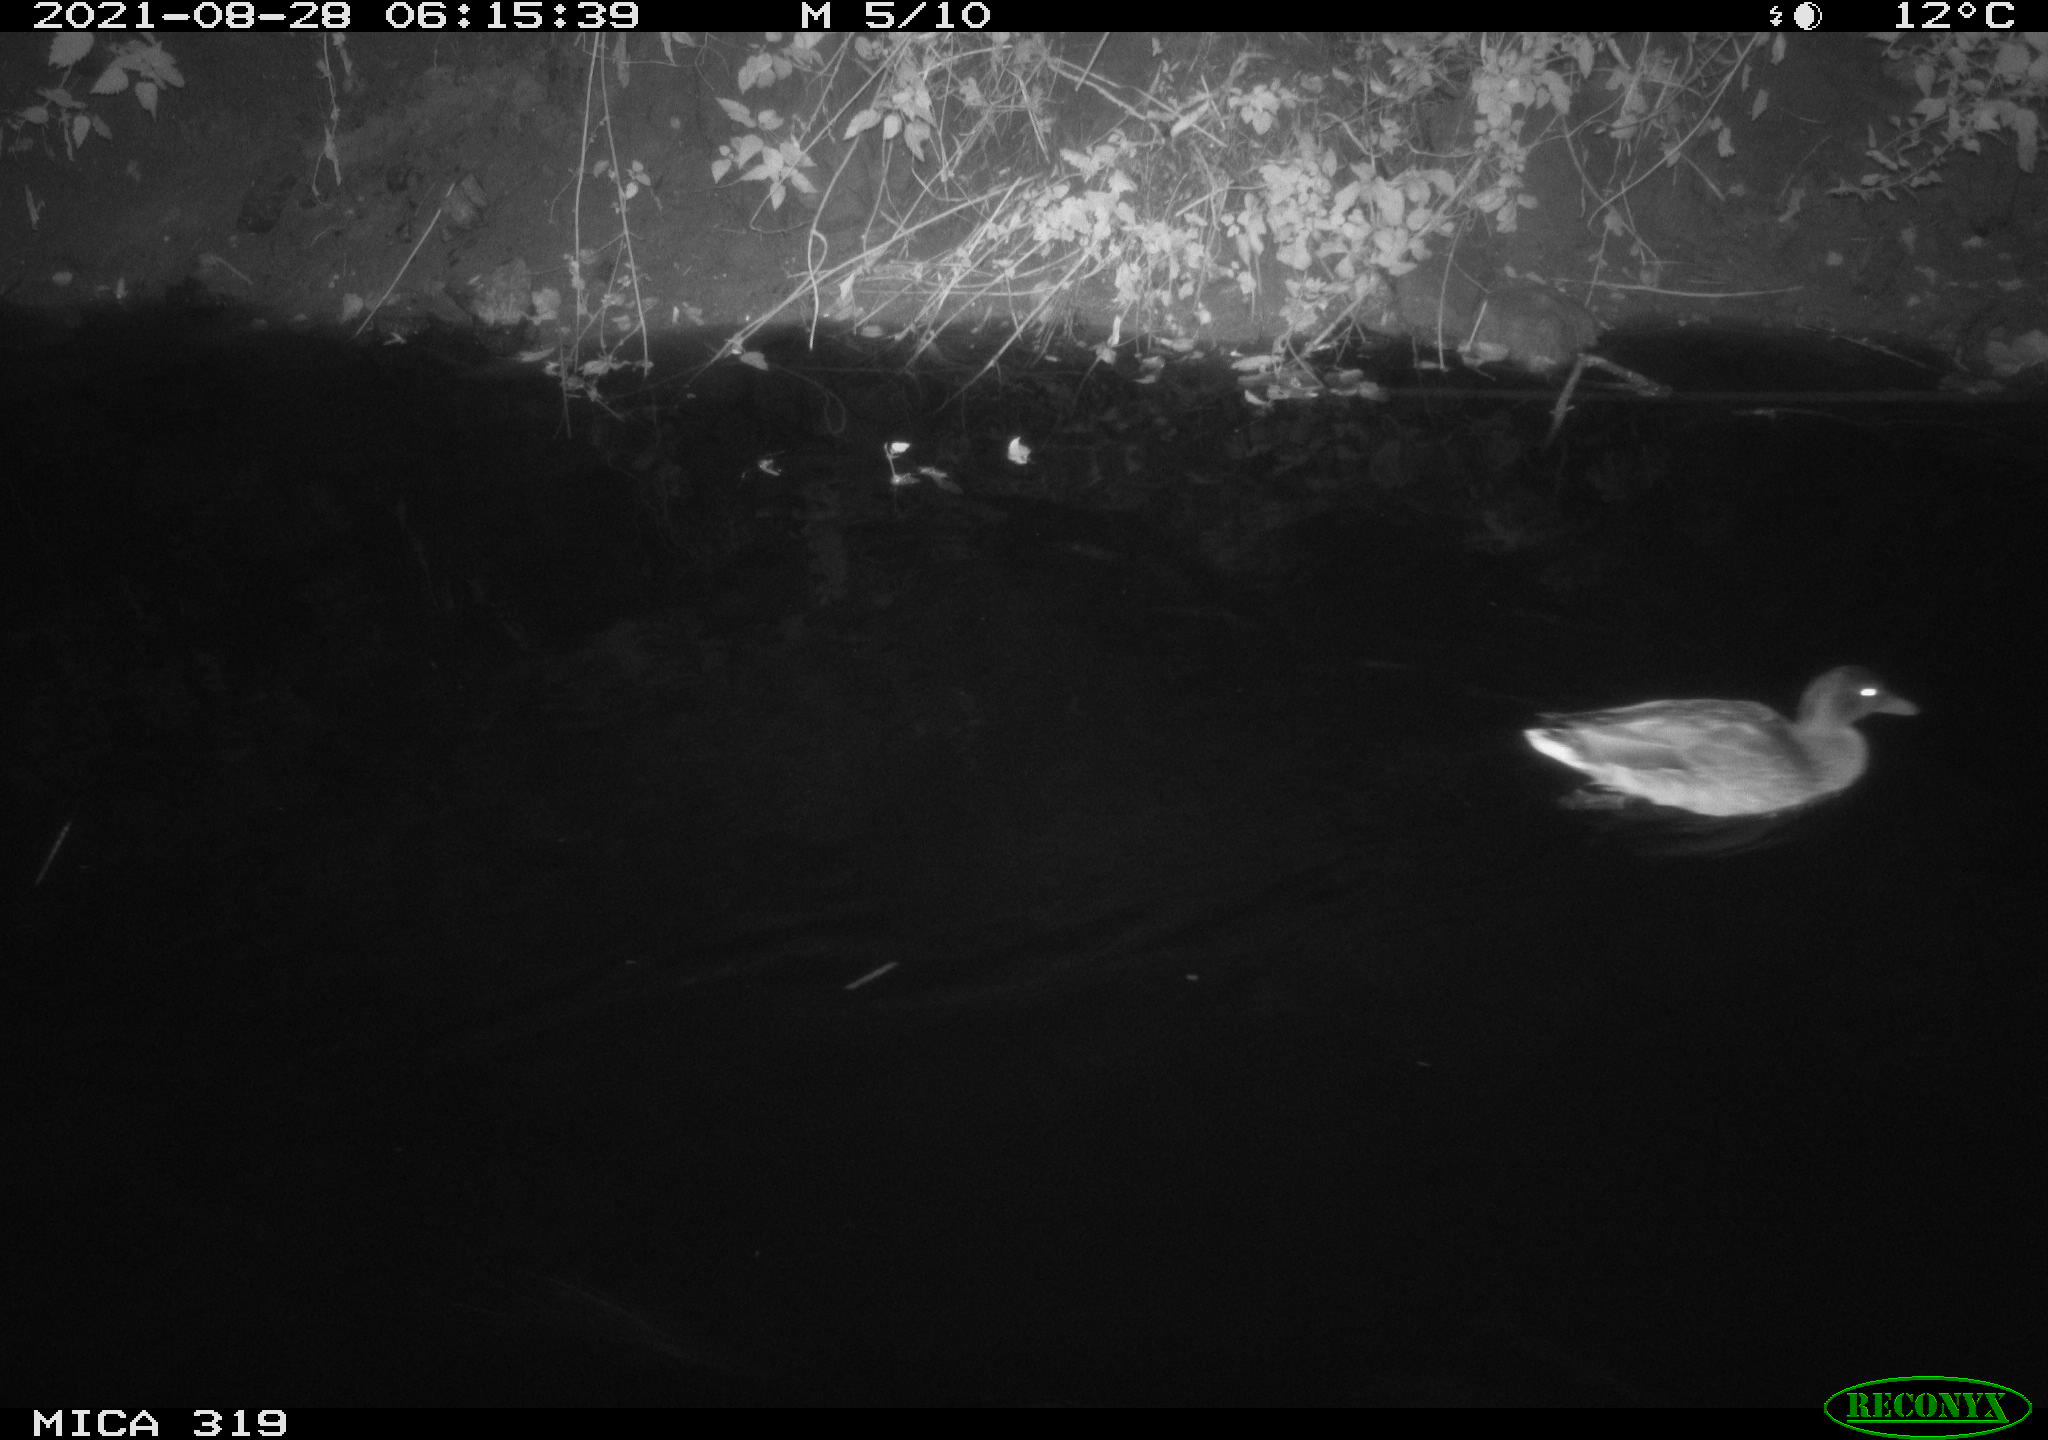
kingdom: Animalia
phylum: Chordata
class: Aves
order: Anseriformes
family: Anatidae
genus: Anas
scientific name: Anas platyrhynchos
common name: Mallard
